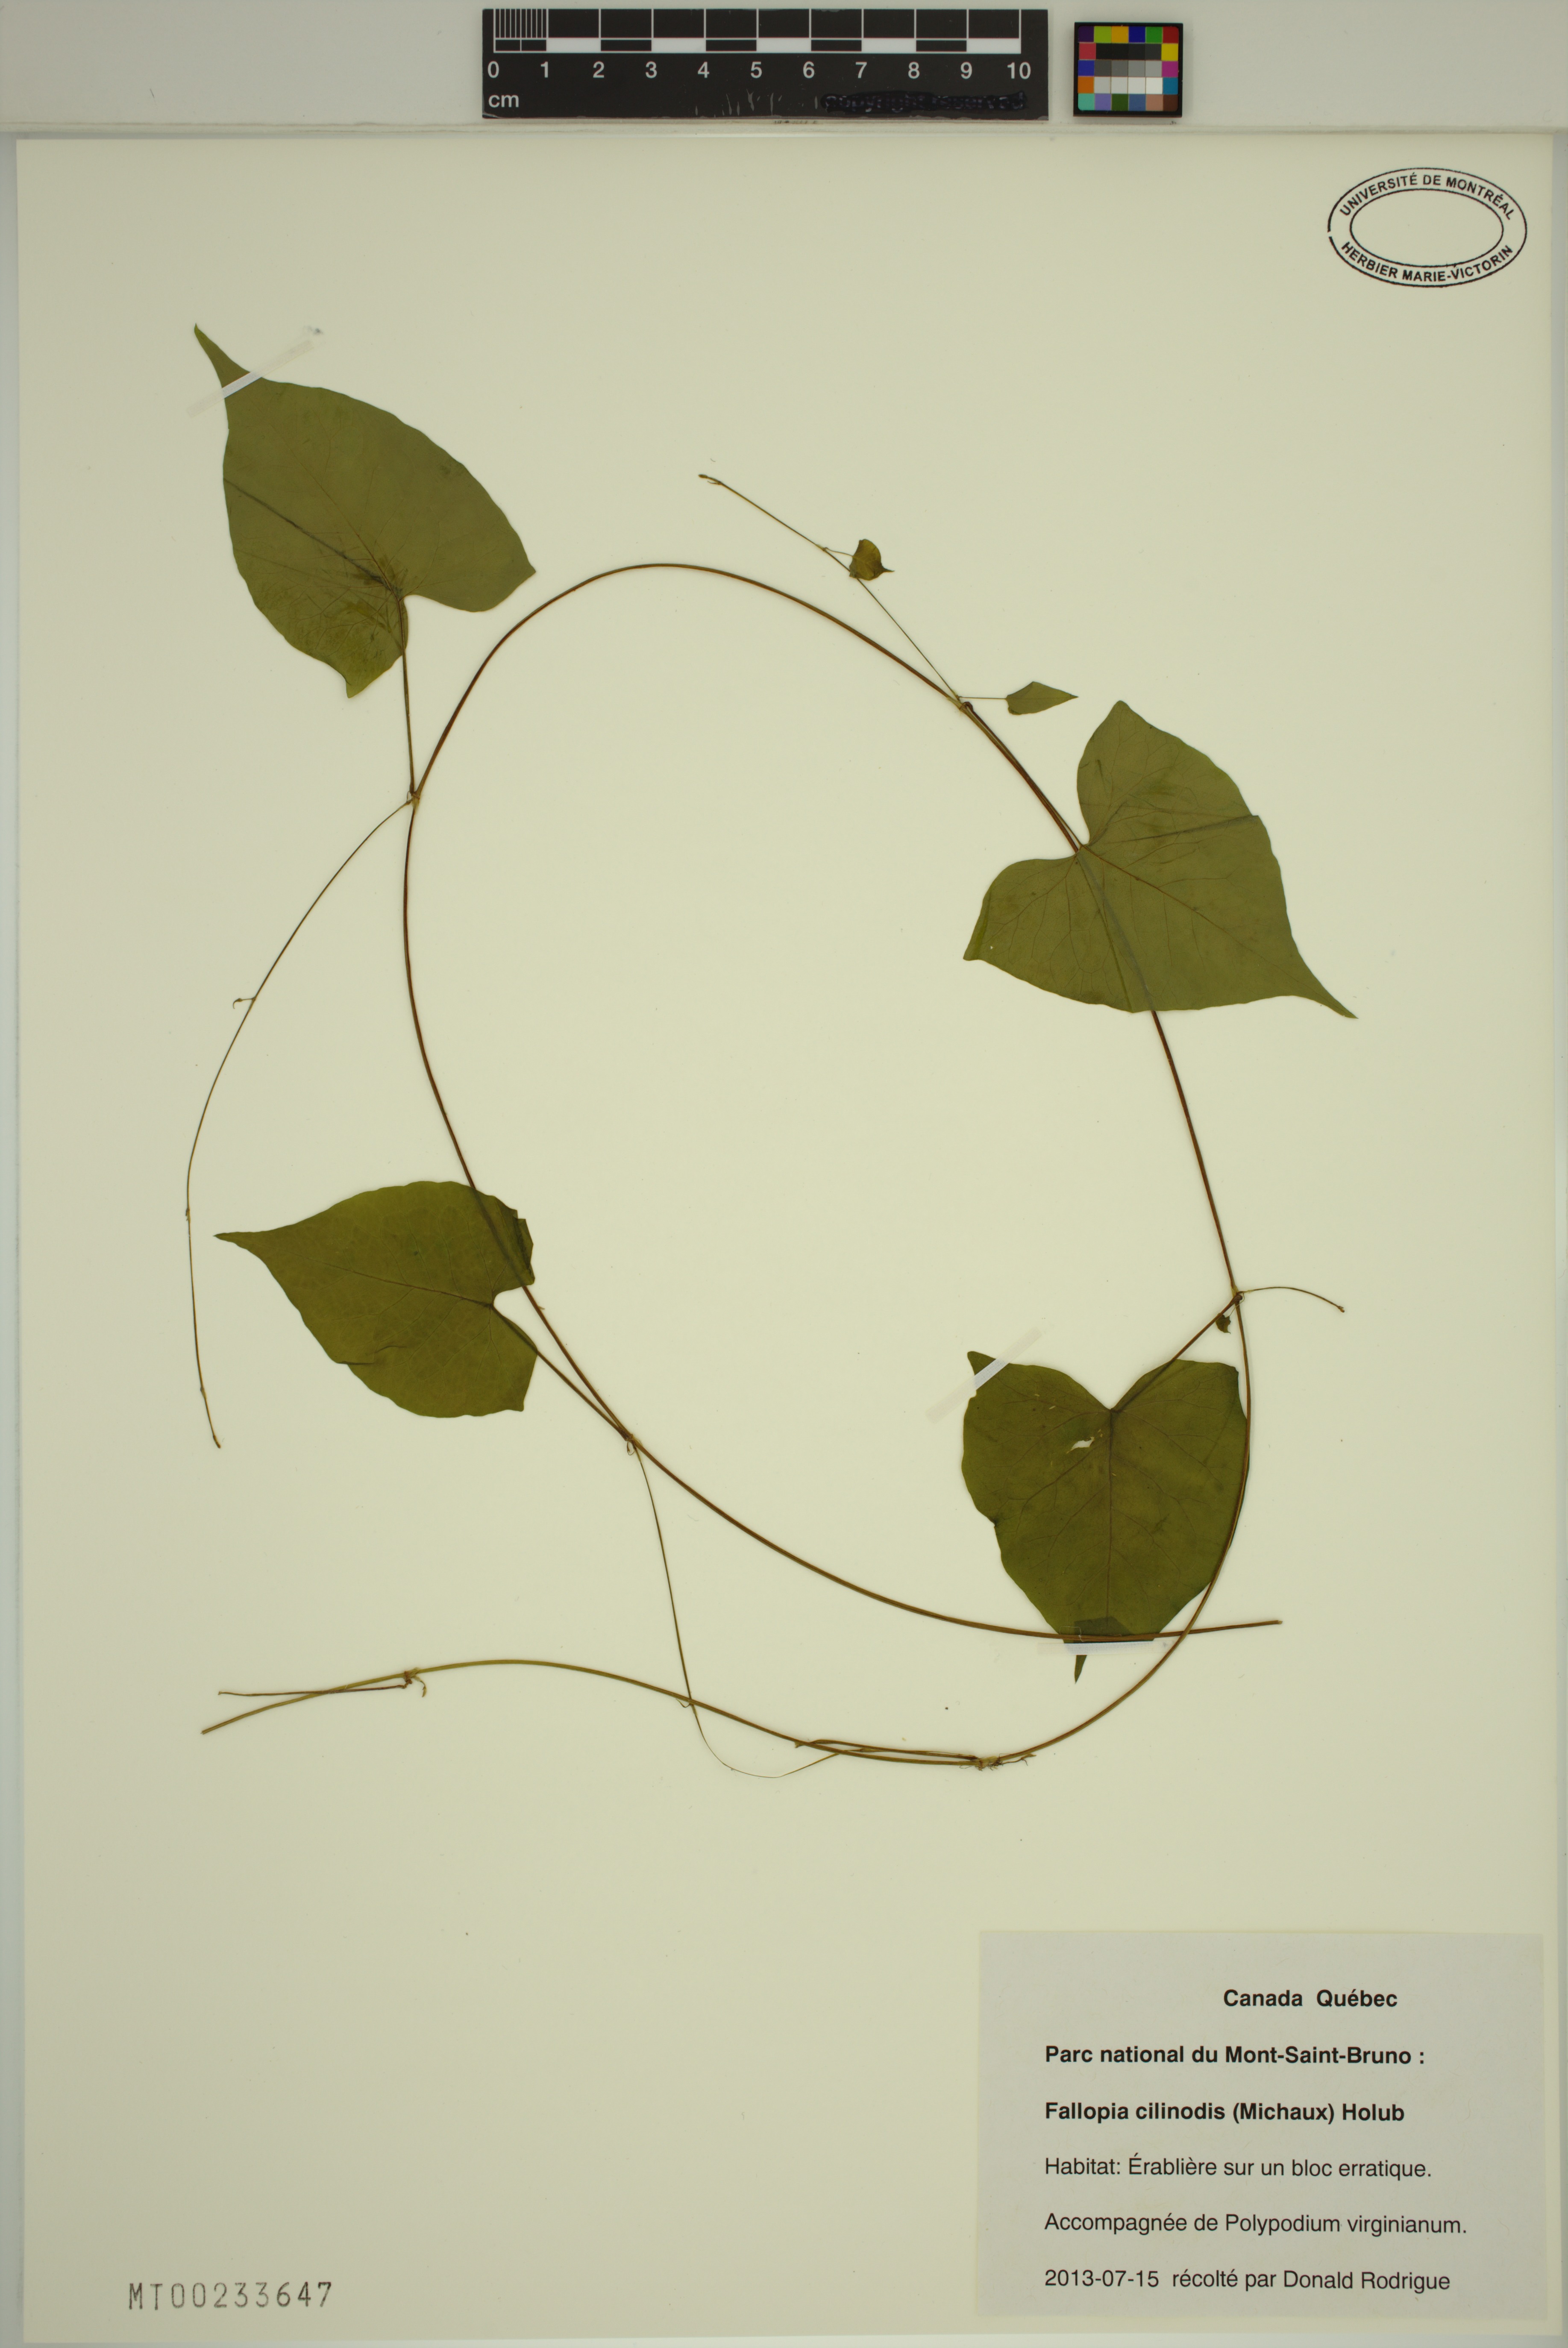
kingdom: Plantae
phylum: Tracheophyta
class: Magnoliopsida
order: Caryophyllales
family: Polygonaceae
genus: Parogonum
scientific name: Parogonum ciliinode
